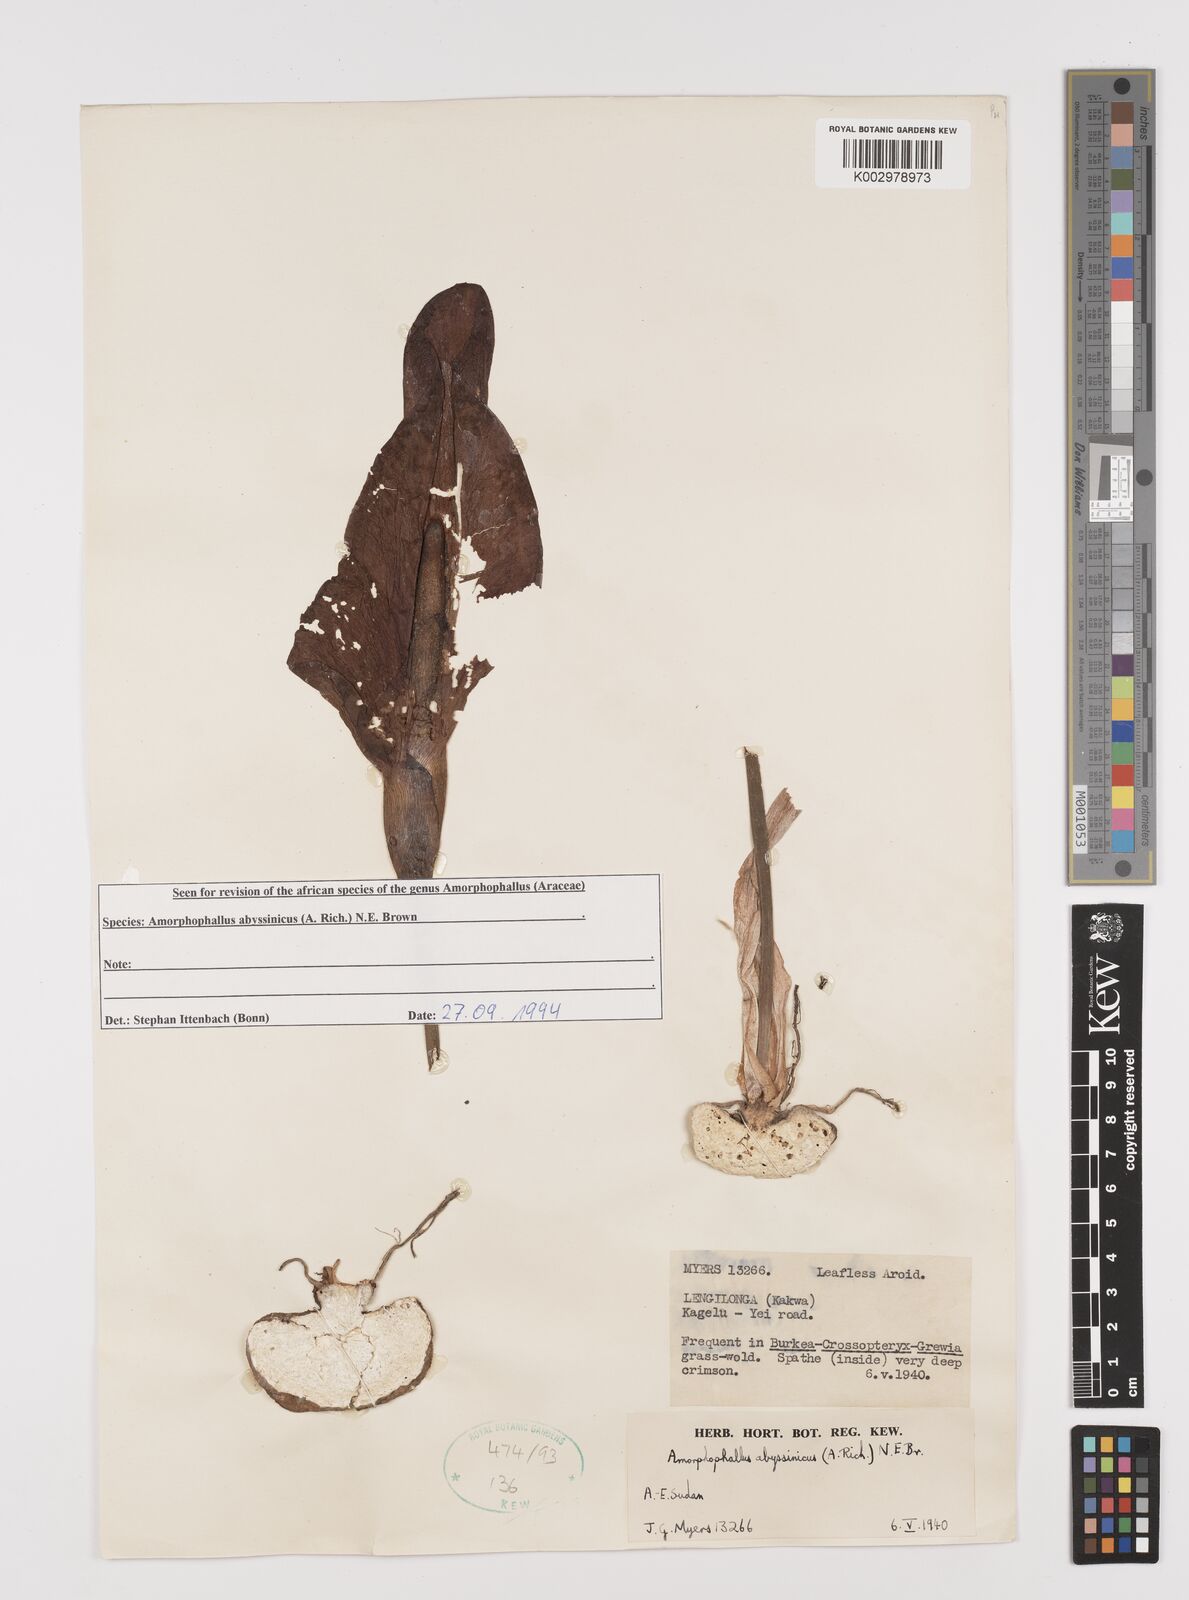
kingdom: Plantae
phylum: Tracheophyta
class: Liliopsida
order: Alismatales
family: Araceae
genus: Amorphophallus
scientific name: Amorphophallus abyssinicus
